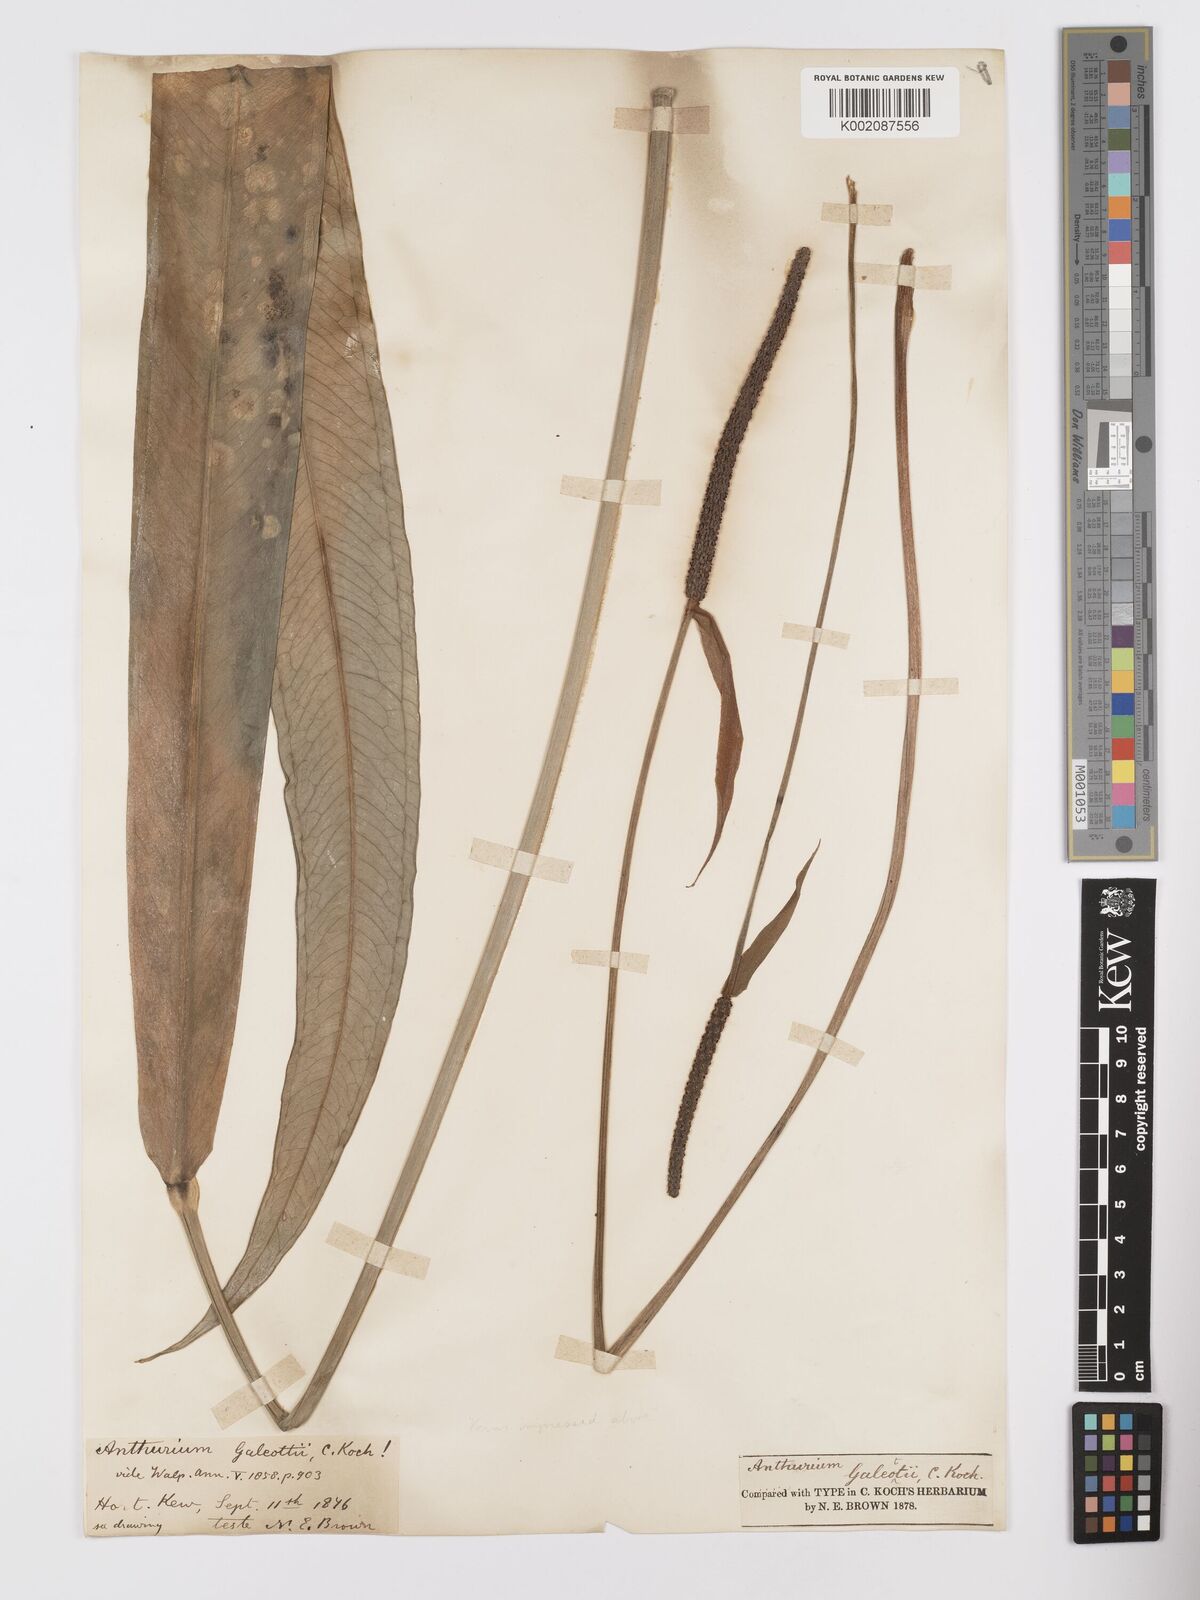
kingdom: Plantae
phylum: Tracheophyta
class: Liliopsida
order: Alismatales
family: Araceae
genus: Anthurium
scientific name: Anthurium galeottii
